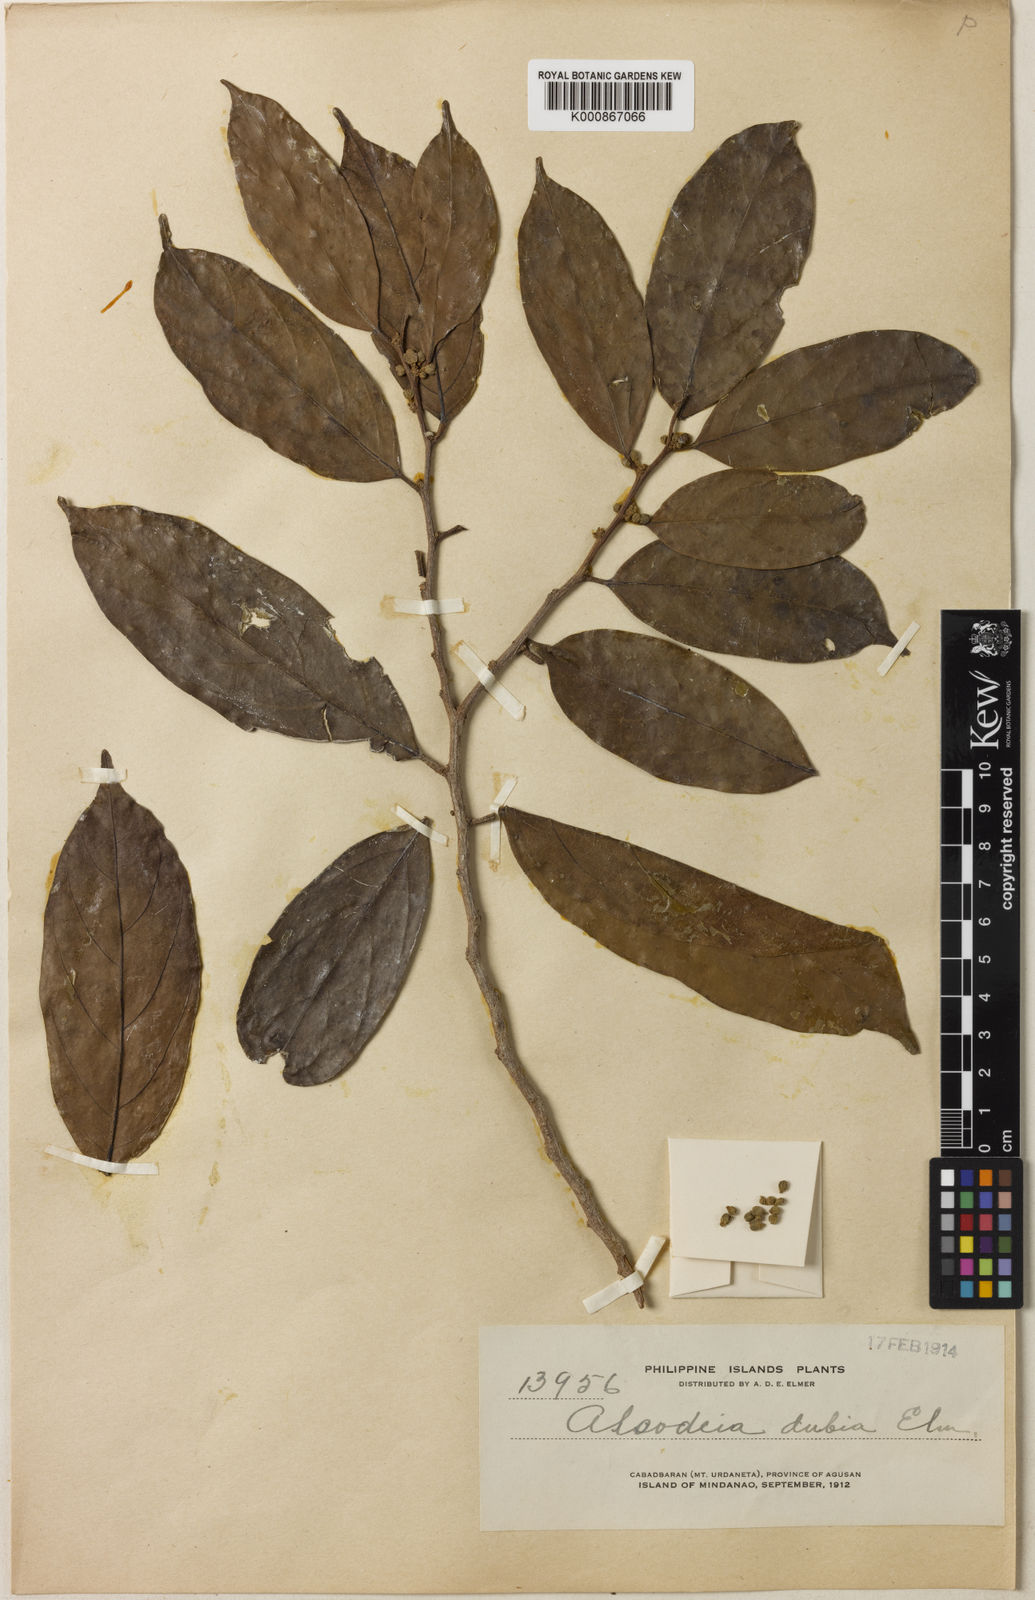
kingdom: Plantae
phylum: Tracheophyta
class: Magnoliopsida
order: Malpighiales
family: Peraceae
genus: Trigonopleura
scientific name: Trigonopleura malayana
